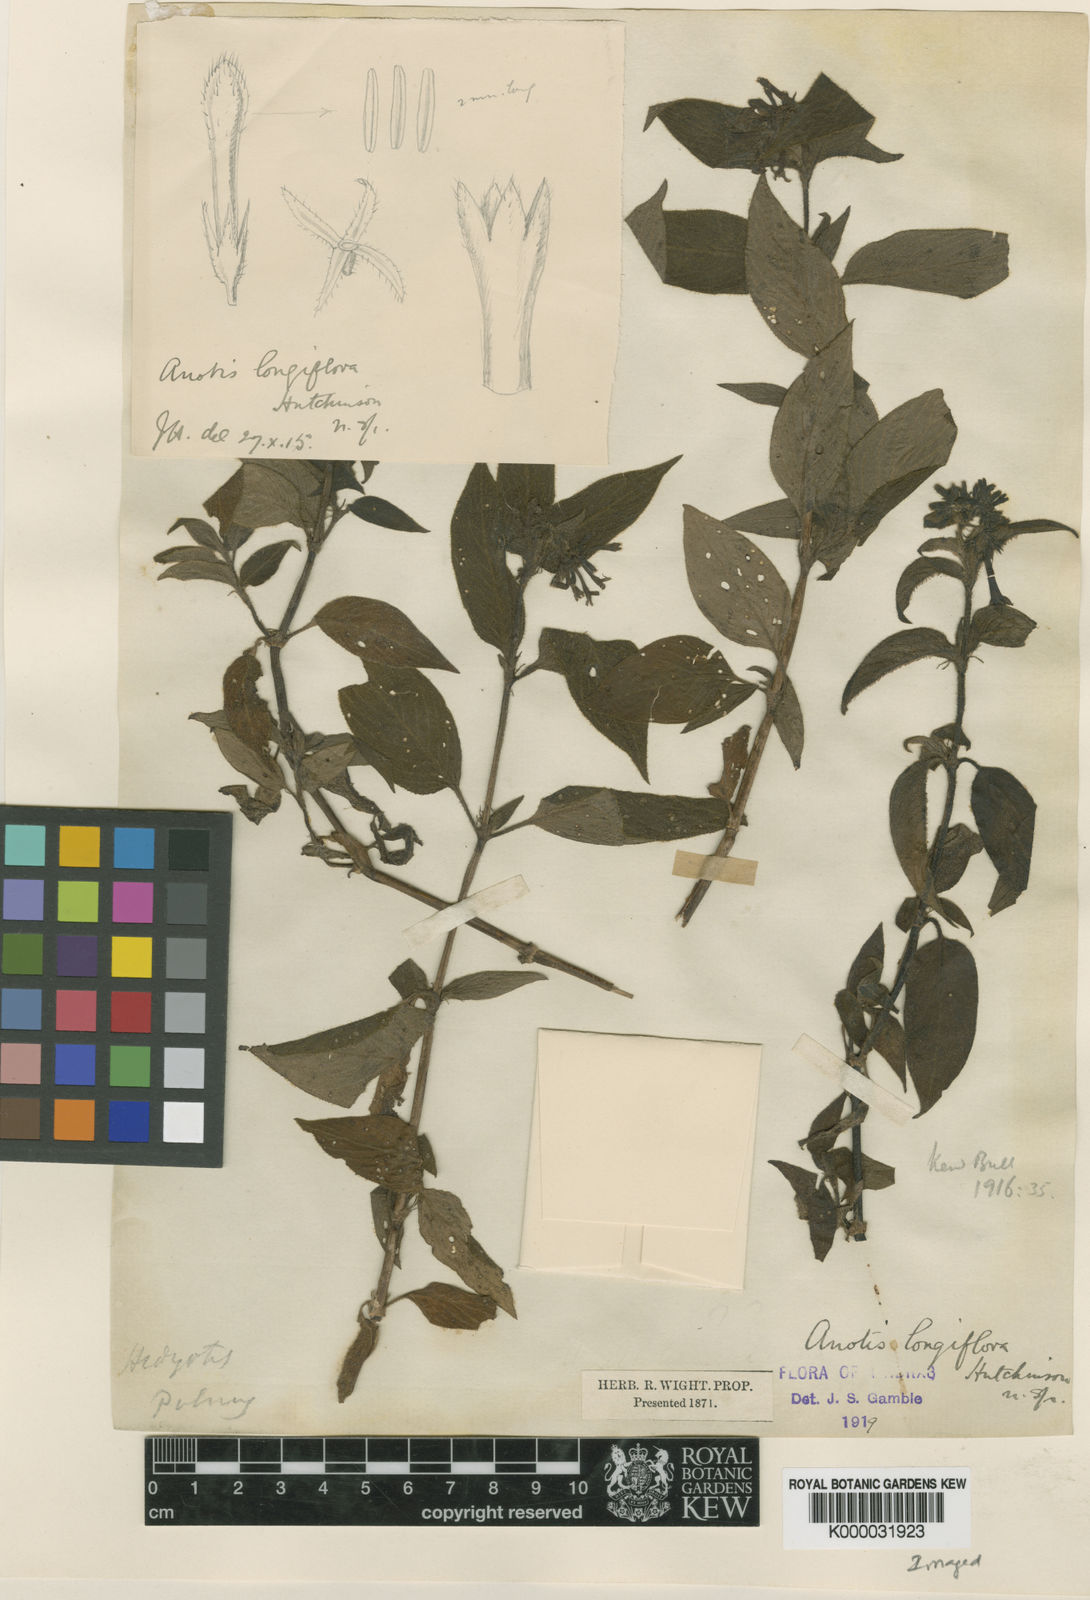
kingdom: Plantae
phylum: Tracheophyta
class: Magnoliopsida
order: Gentianales
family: Rubiaceae
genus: Neanotis
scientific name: Neanotis longiflora
